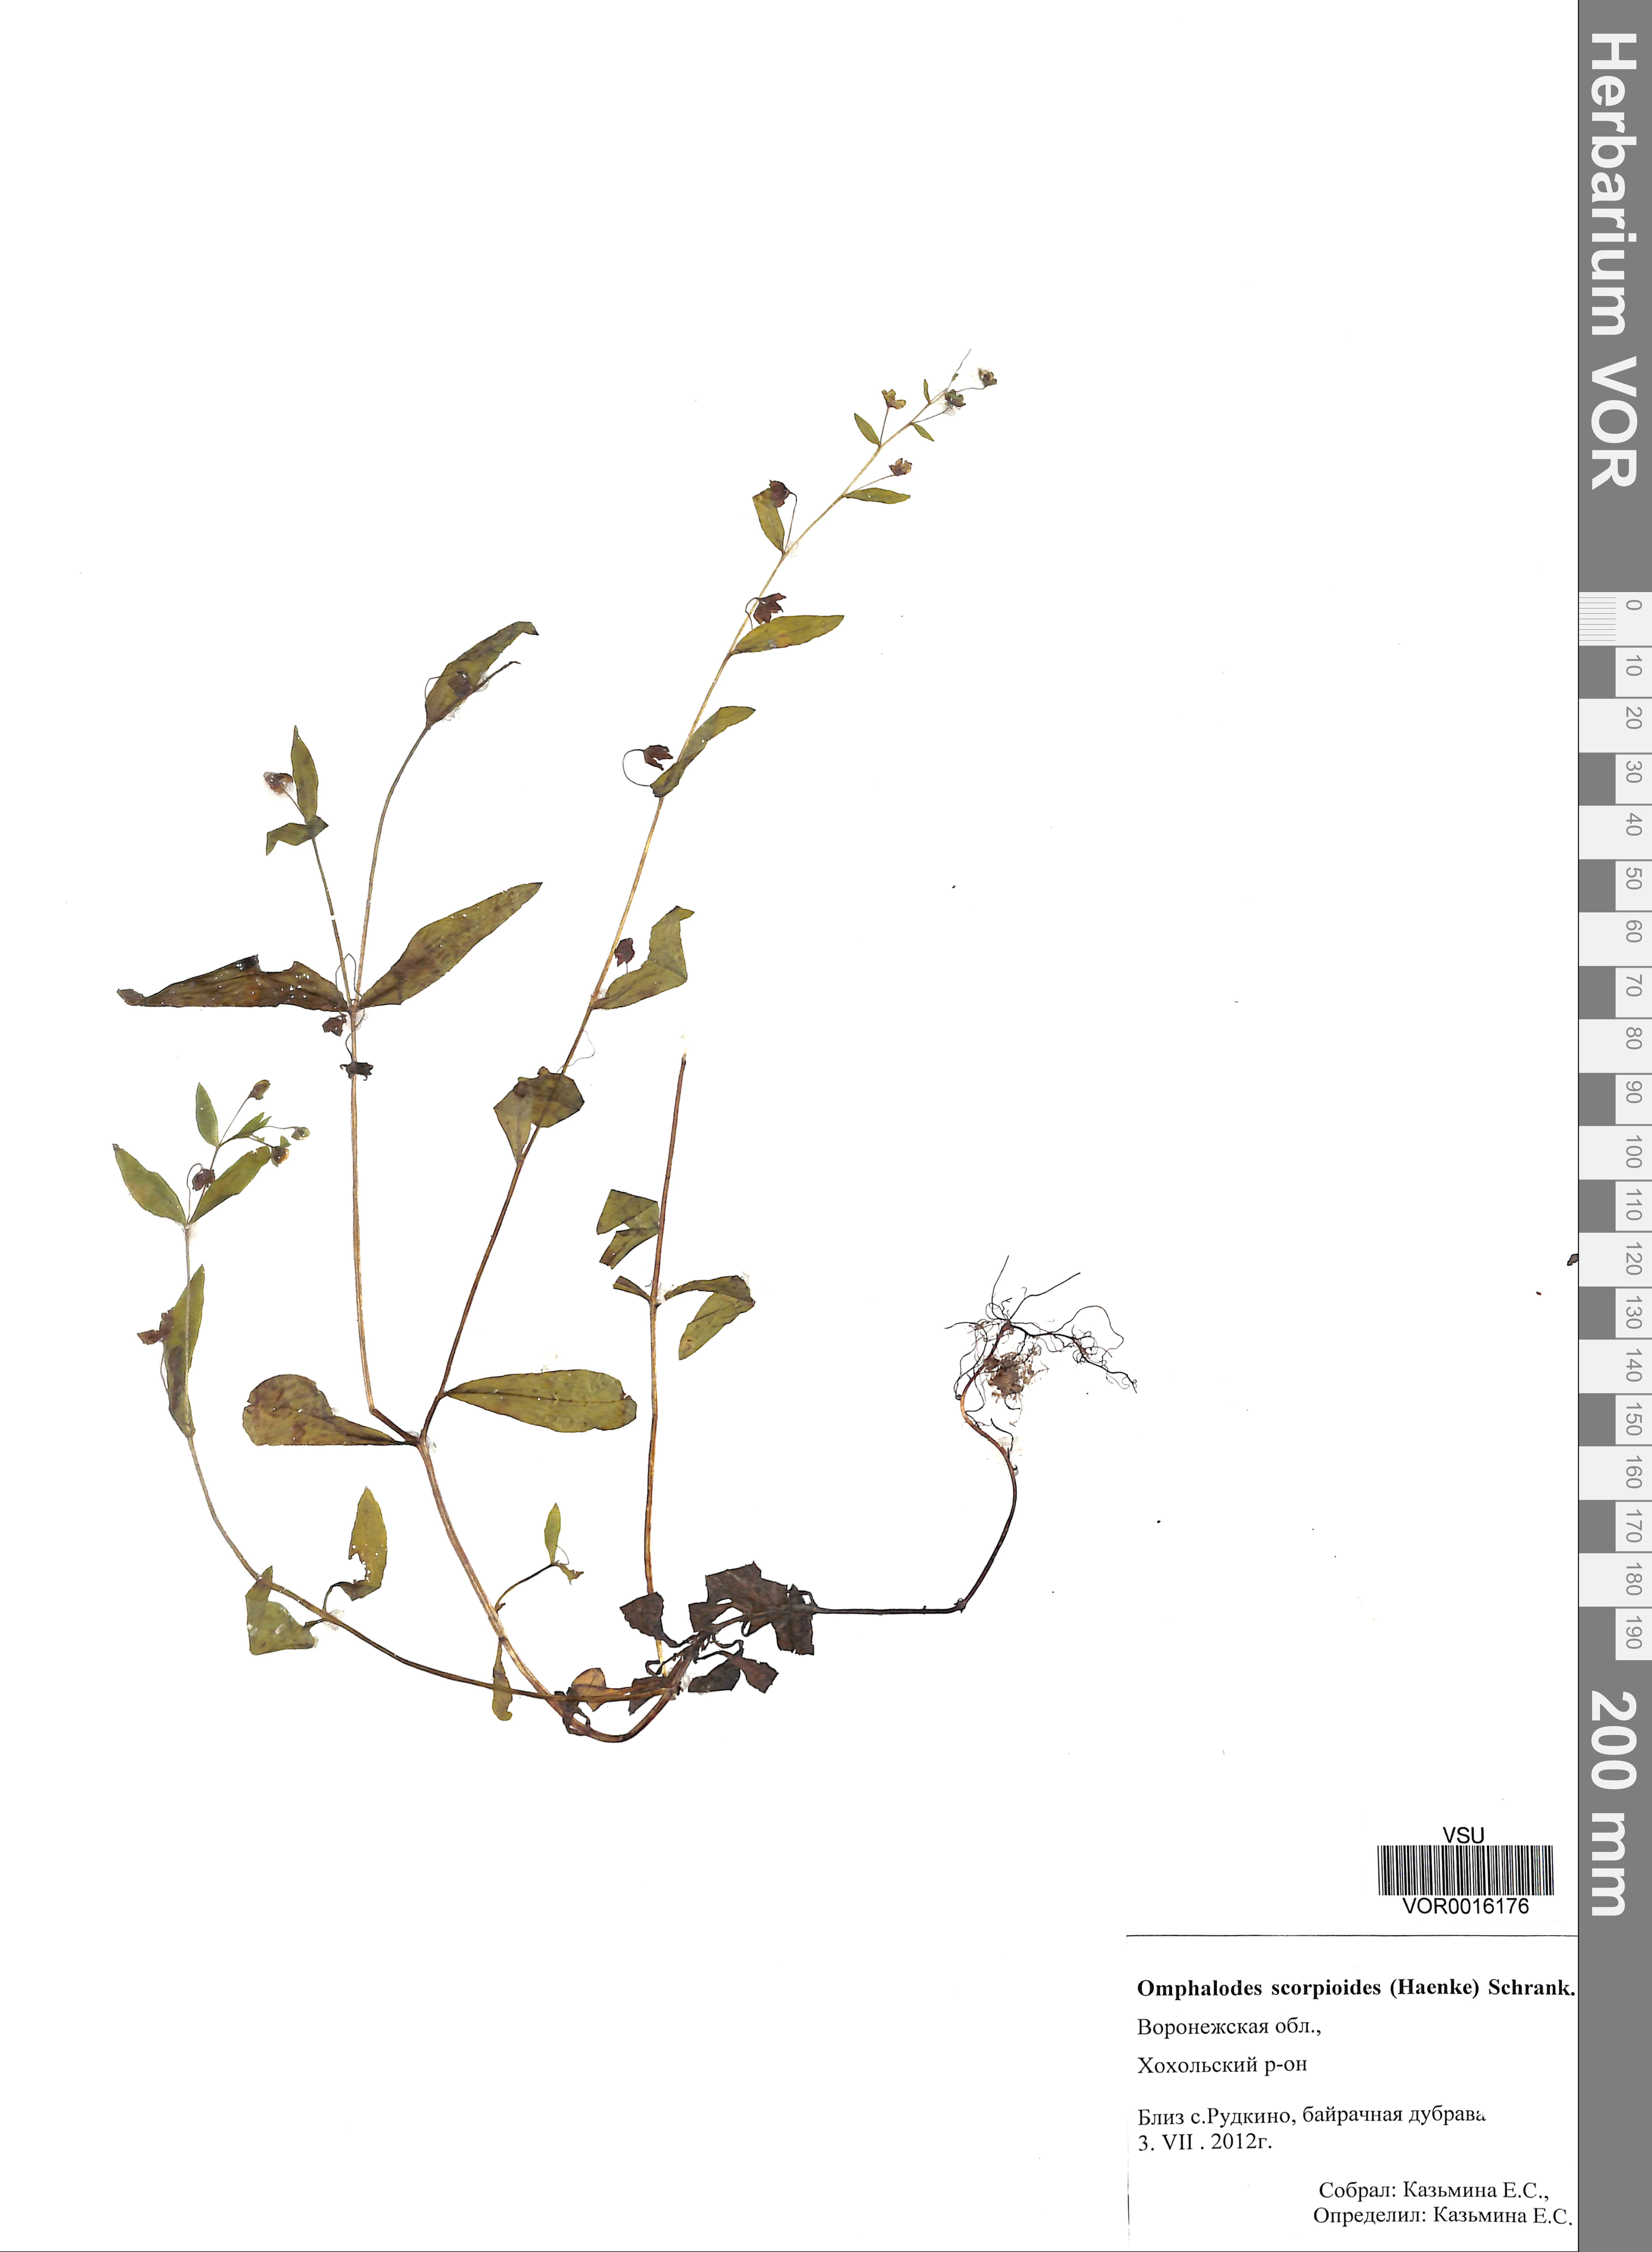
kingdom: Plantae
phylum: Tracheophyta
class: Magnoliopsida
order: Boraginales
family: Boraginaceae
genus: Memoremea
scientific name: Memoremea scorpioides
